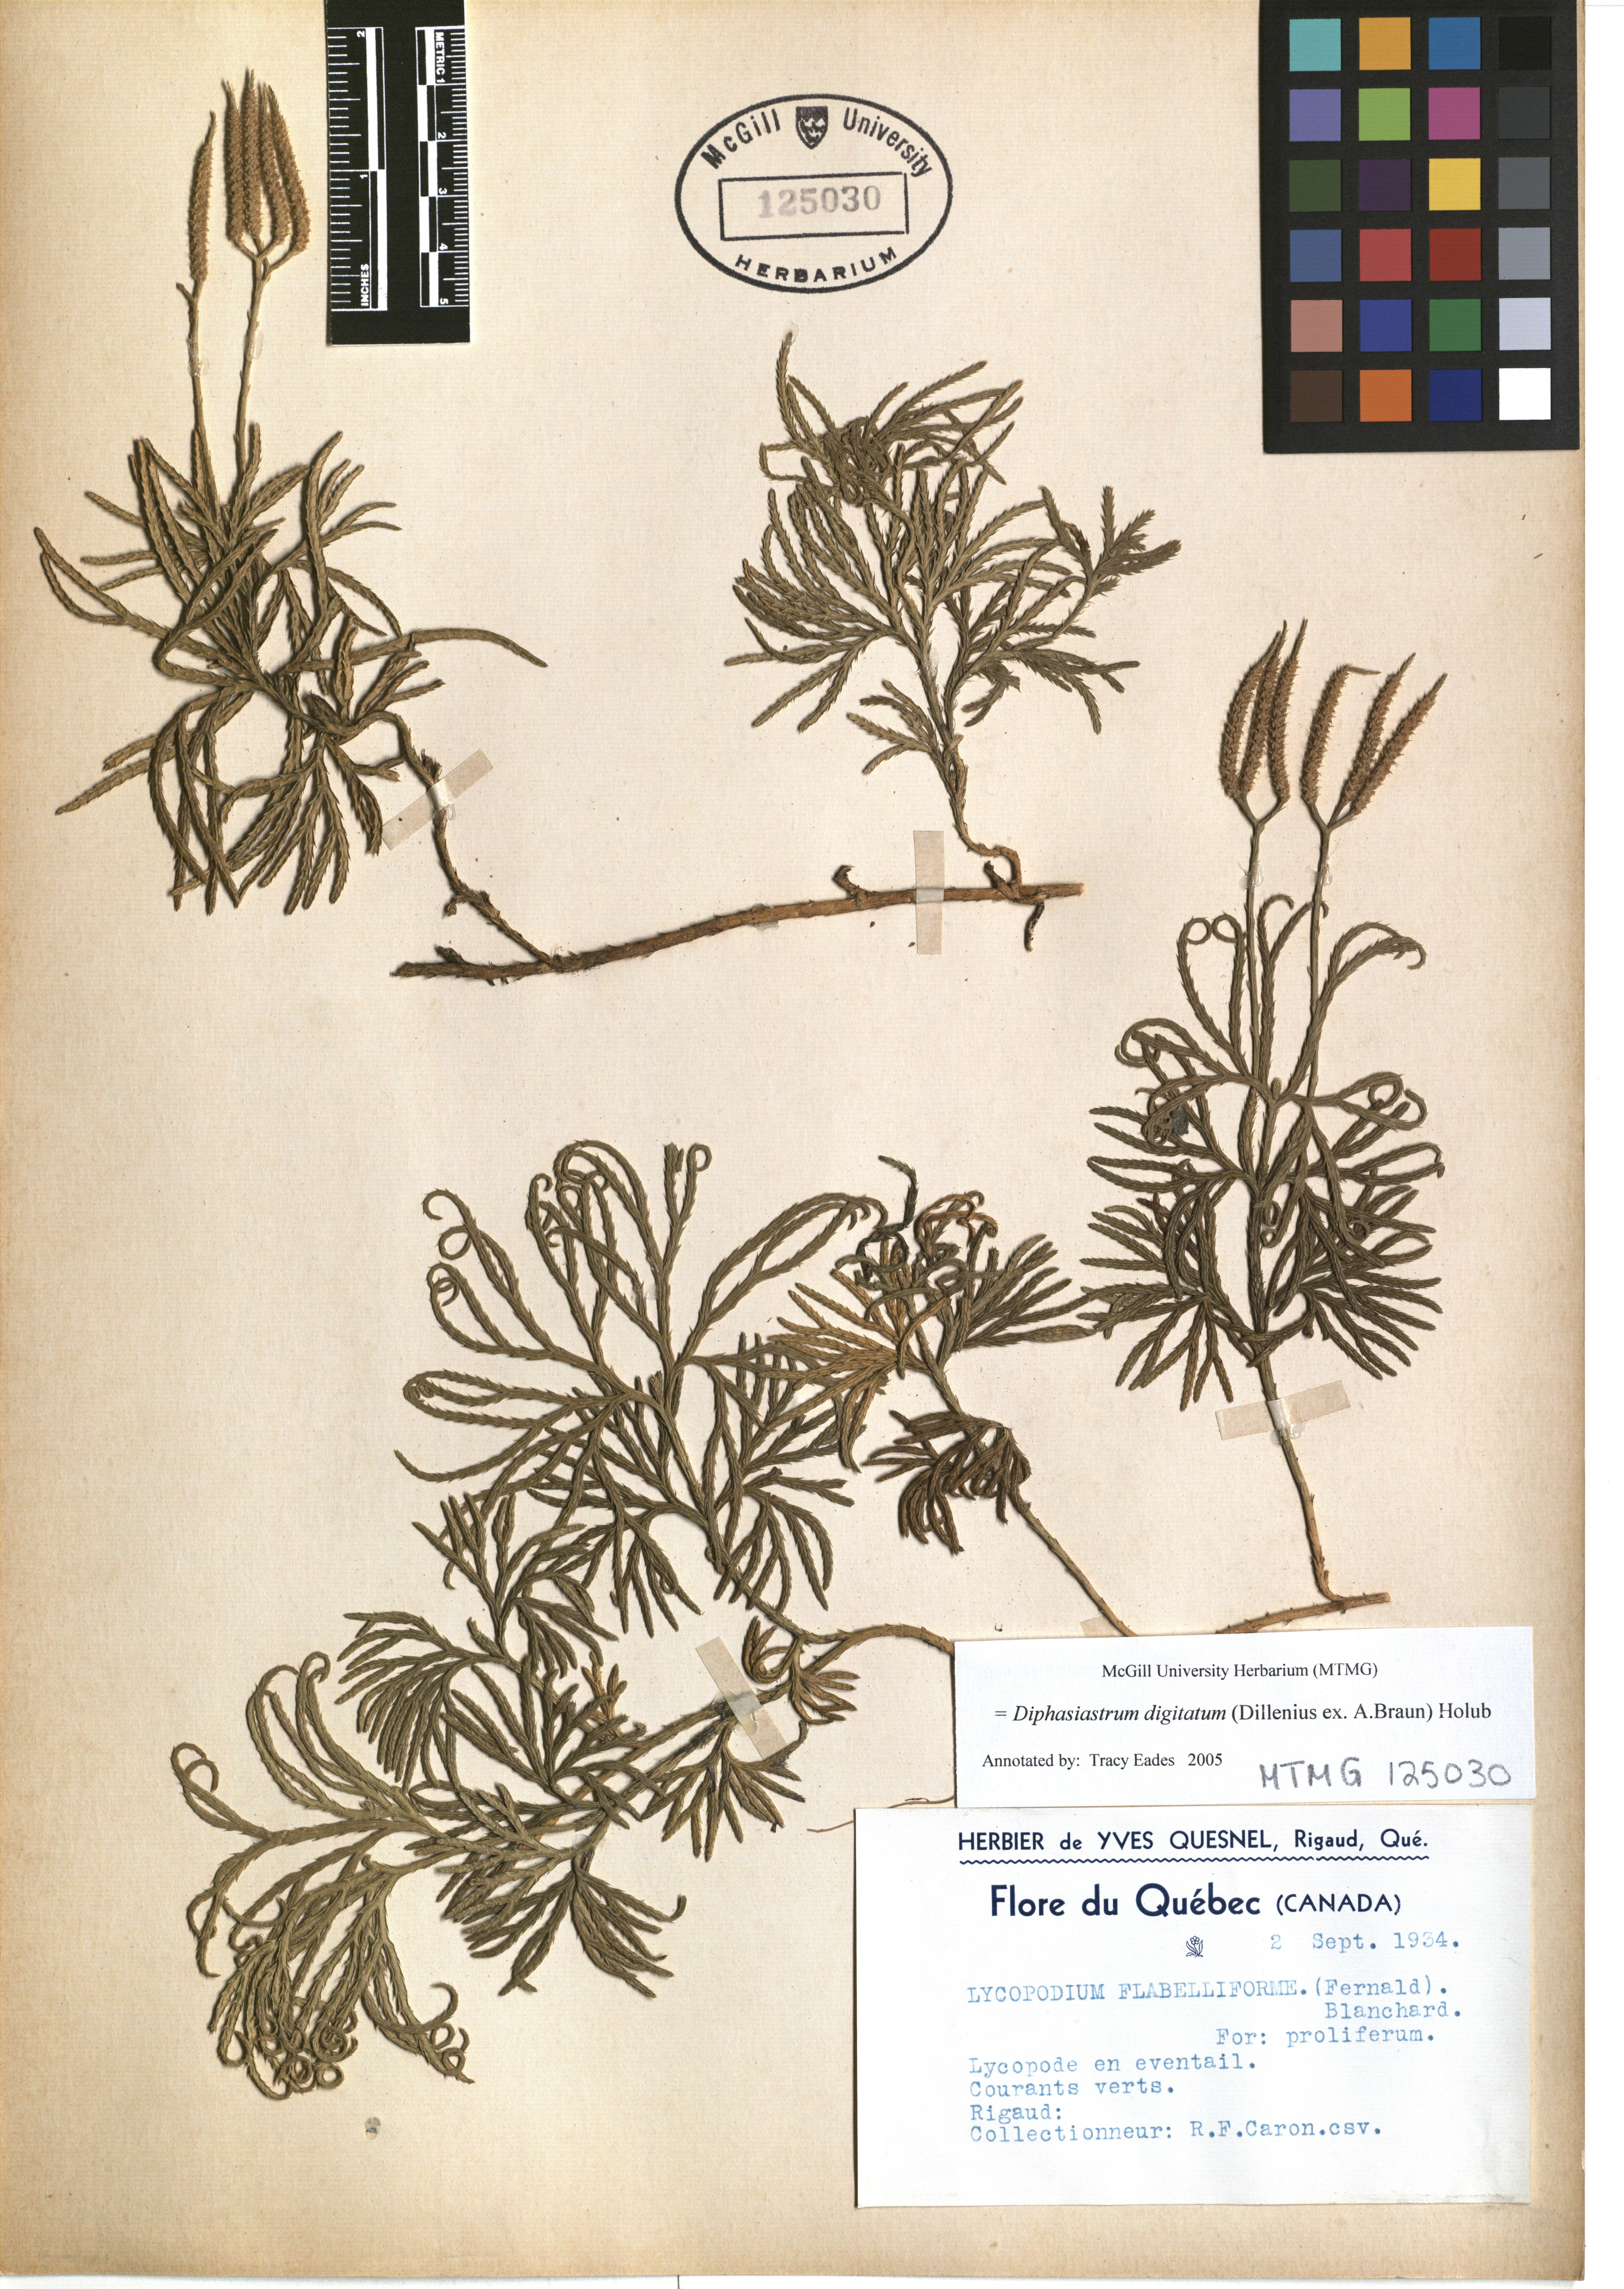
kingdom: Plantae
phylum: Tracheophyta
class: Lycopodiopsida
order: Lycopodiales
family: Lycopodiaceae
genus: Diphasiastrum
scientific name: Diphasiastrum digitatum
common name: Southern running-pine
